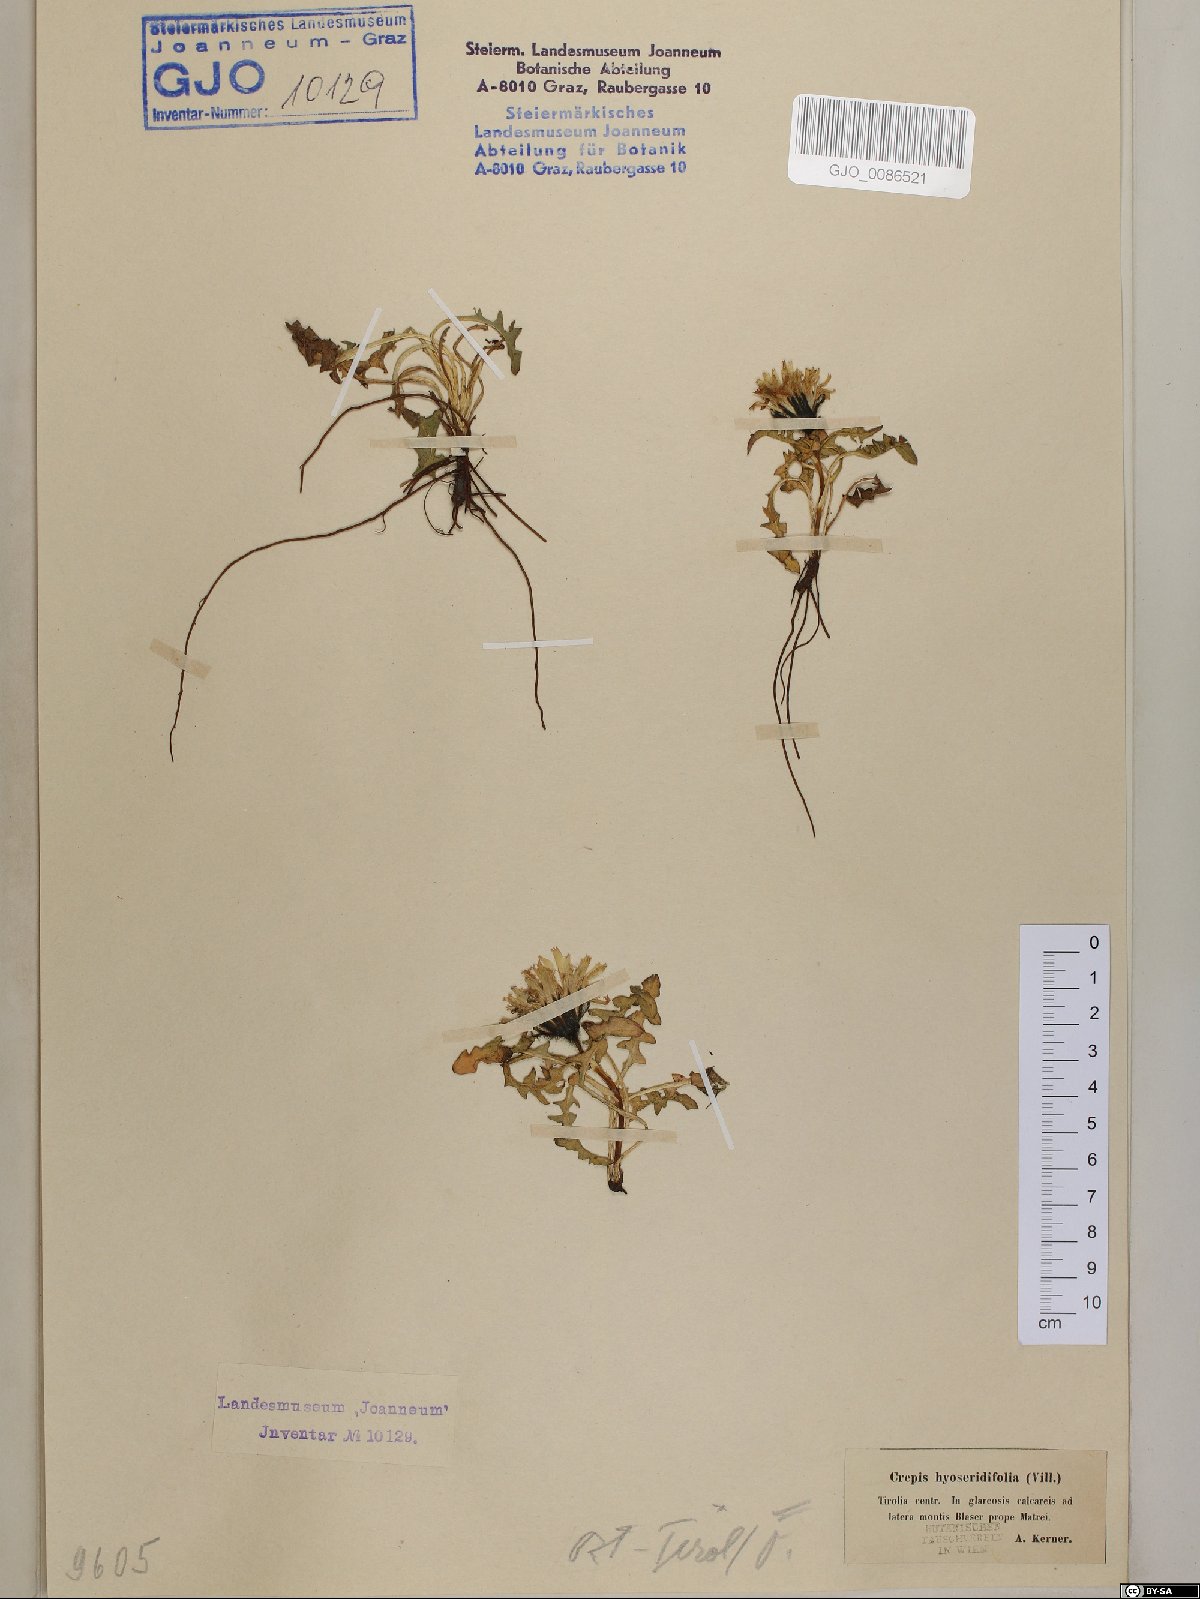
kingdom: Plantae
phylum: Tracheophyta
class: Magnoliopsida
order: Asterales
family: Asteraceae
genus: Crepis
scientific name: Crepis terglouensis
